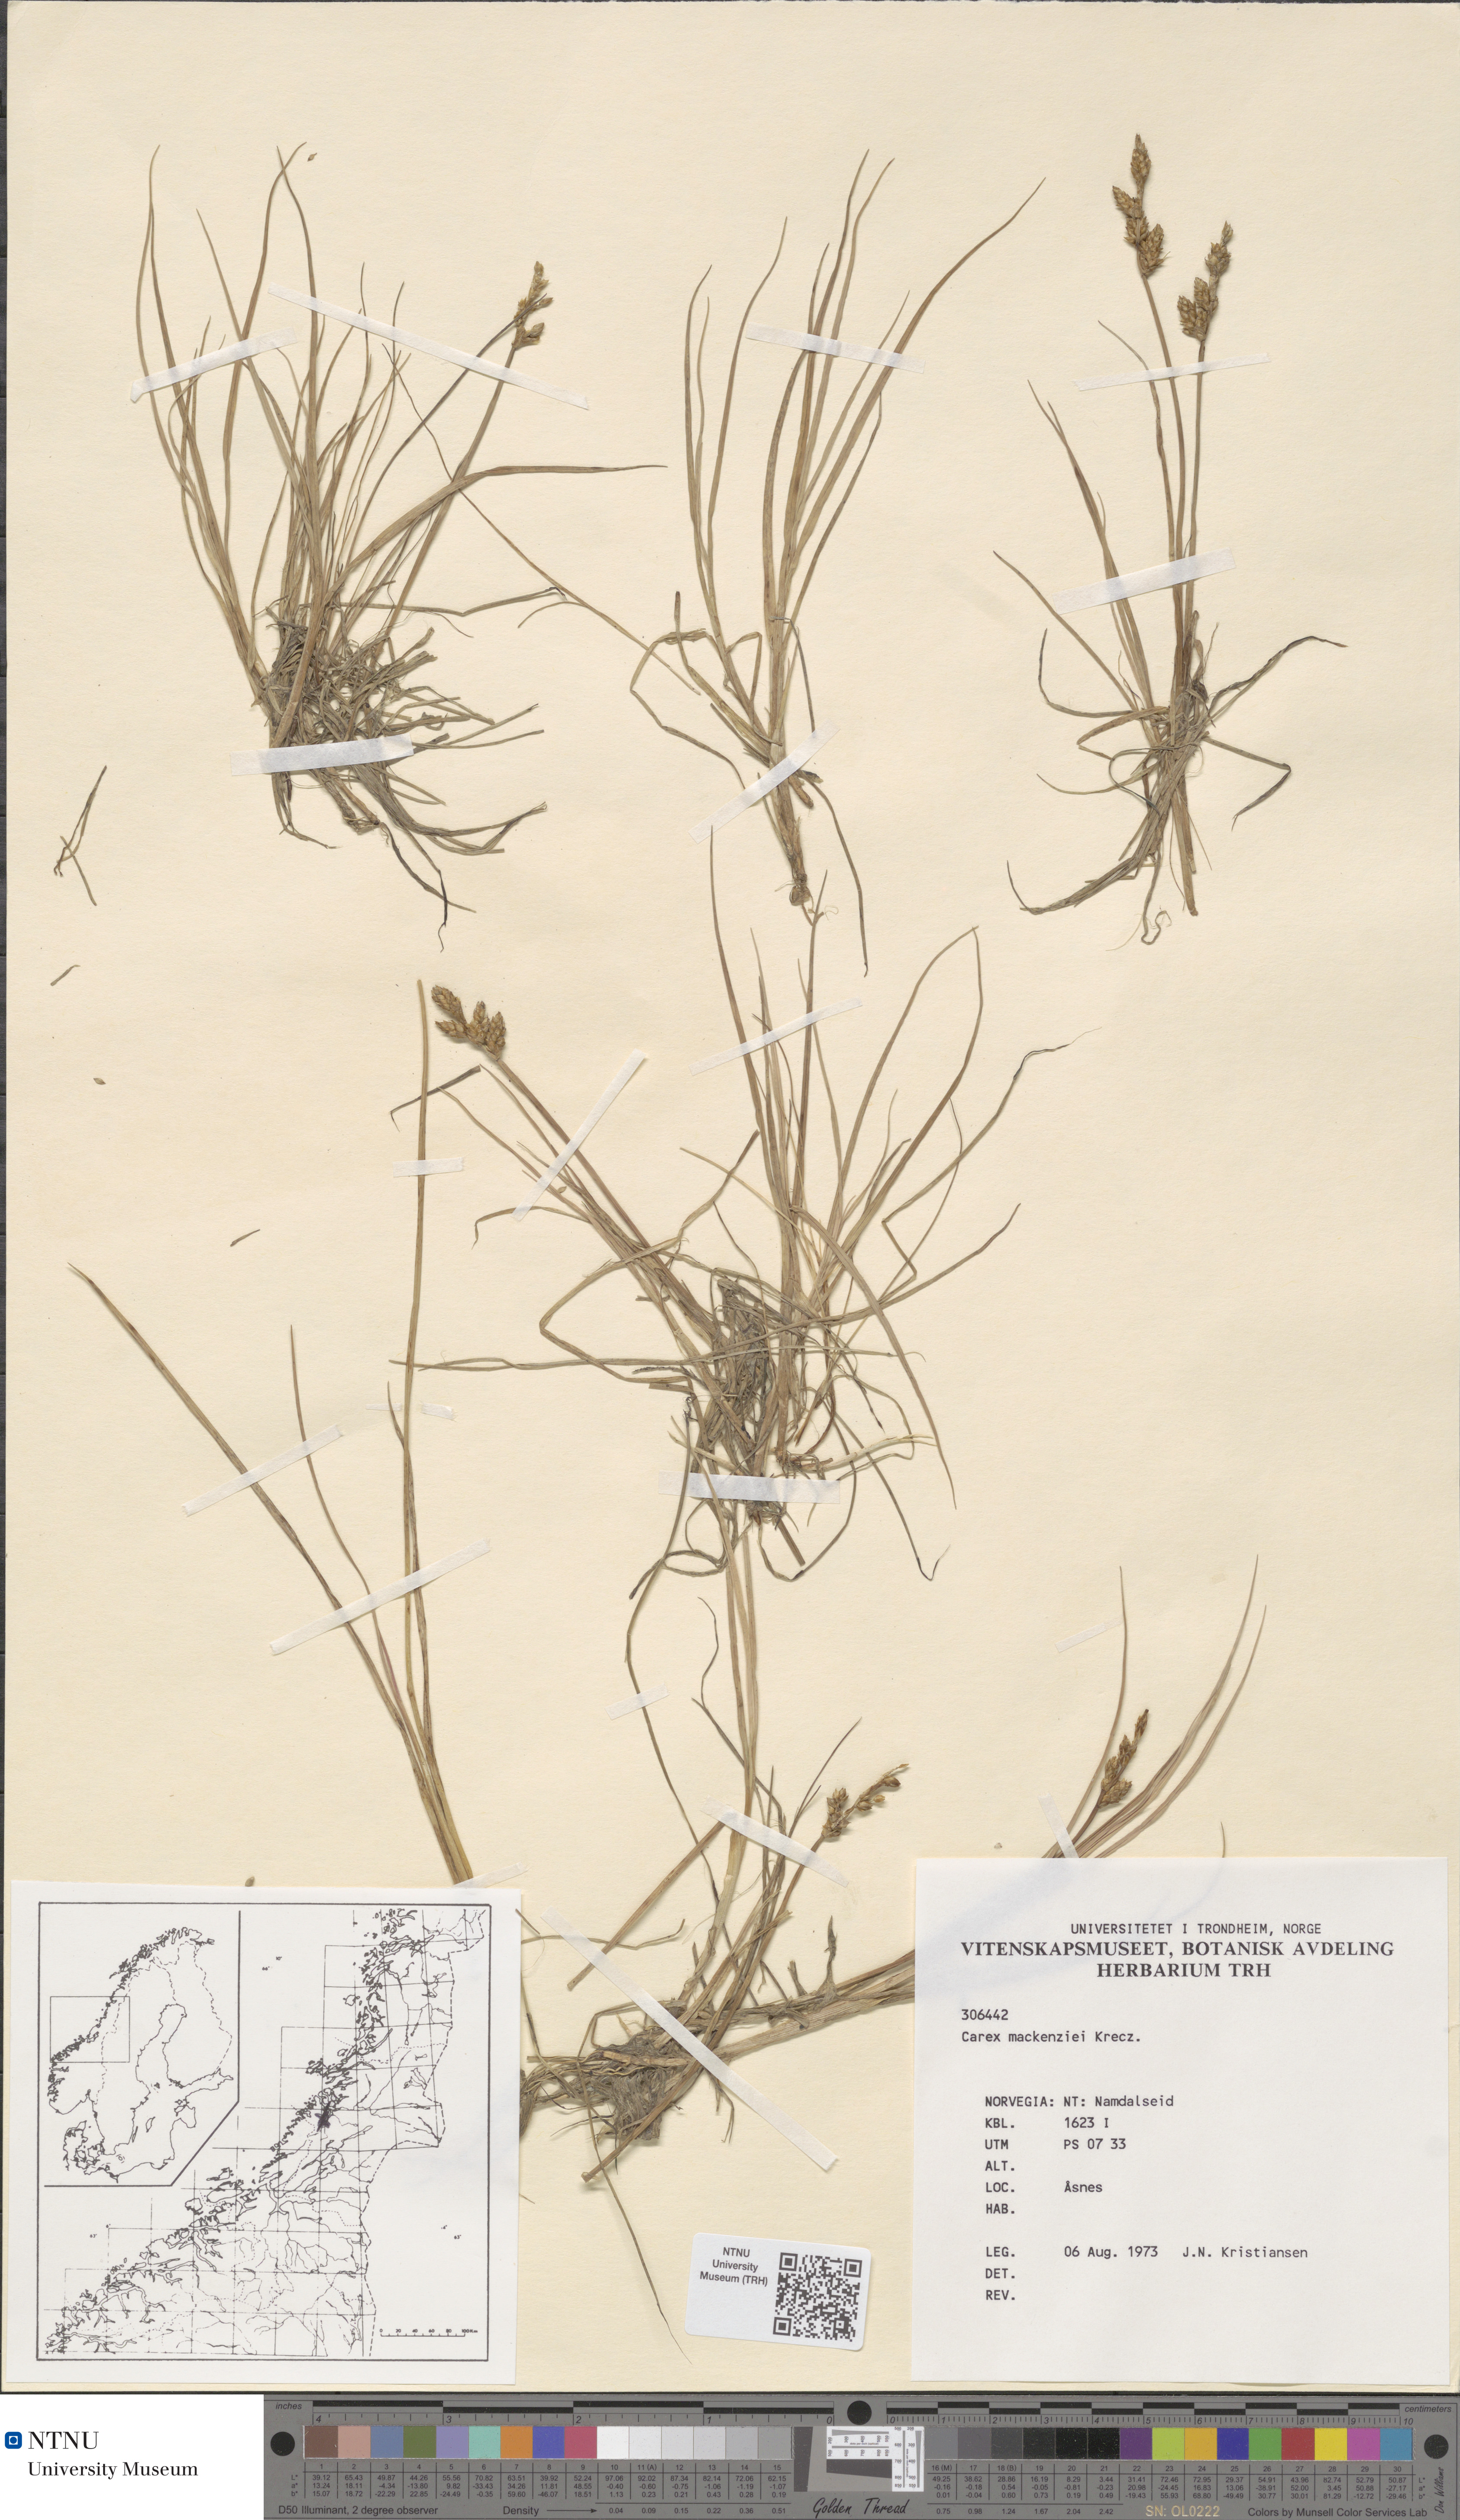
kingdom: Plantae
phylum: Tracheophyta
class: Liliopsida
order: Poales
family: Cyperaceae
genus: Carex
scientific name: Carex mackenziei
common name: Mackenzie's sedge
